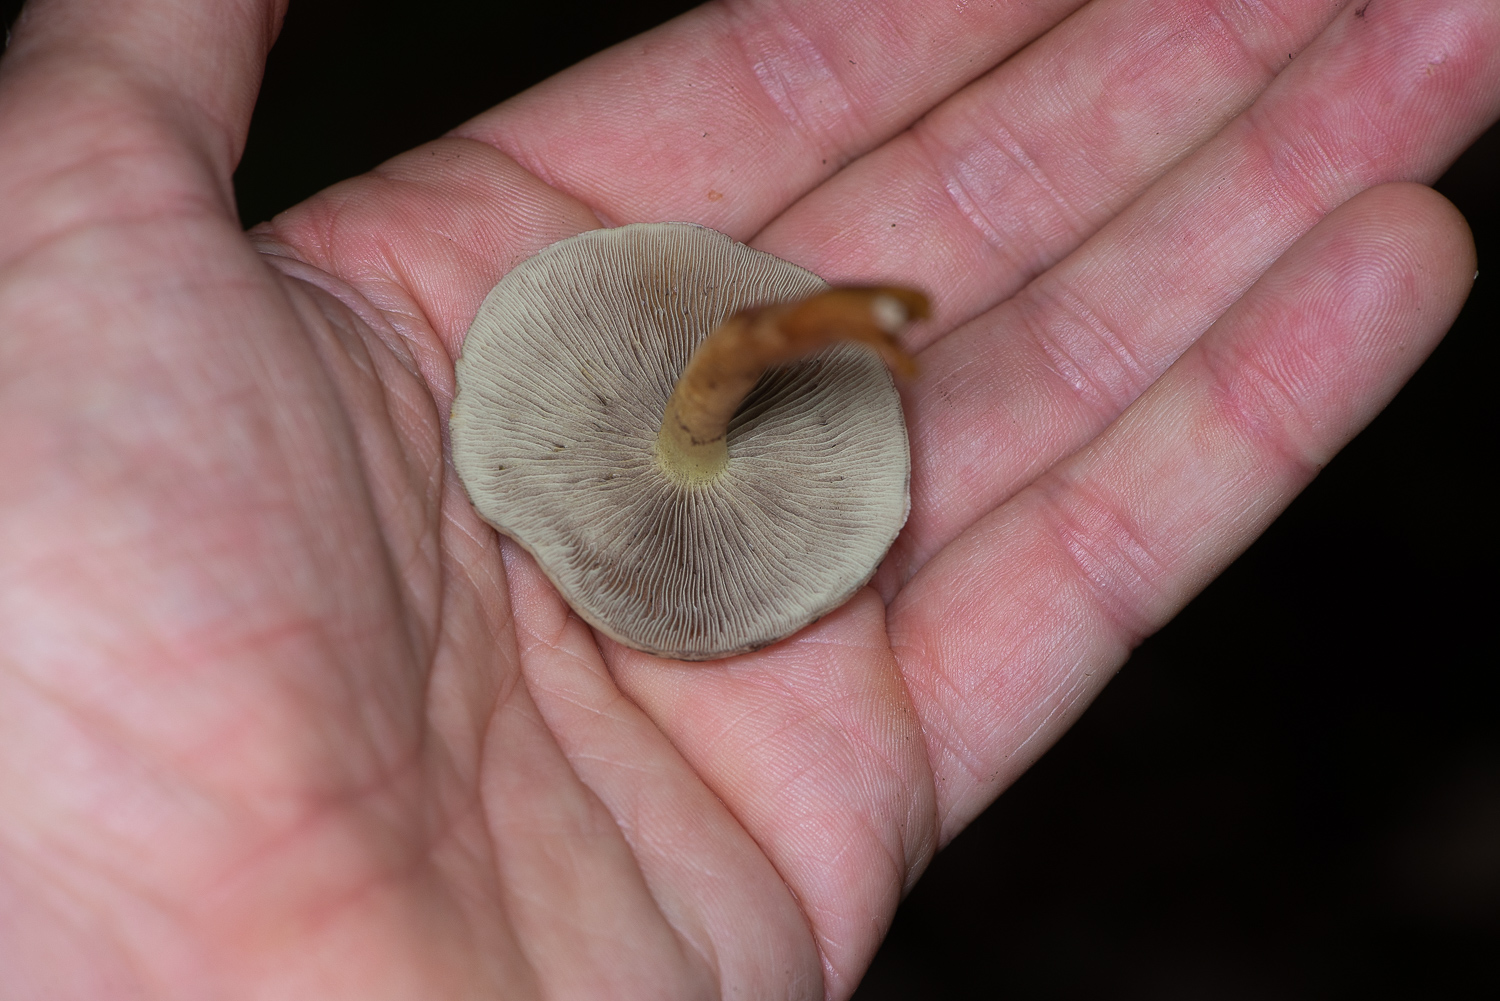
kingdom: Fungi
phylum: Basidiomycota
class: Agaricomycetes
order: Agaricales
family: Strophariaceae
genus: Hypholoma
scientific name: Hypholoma fasciculare
